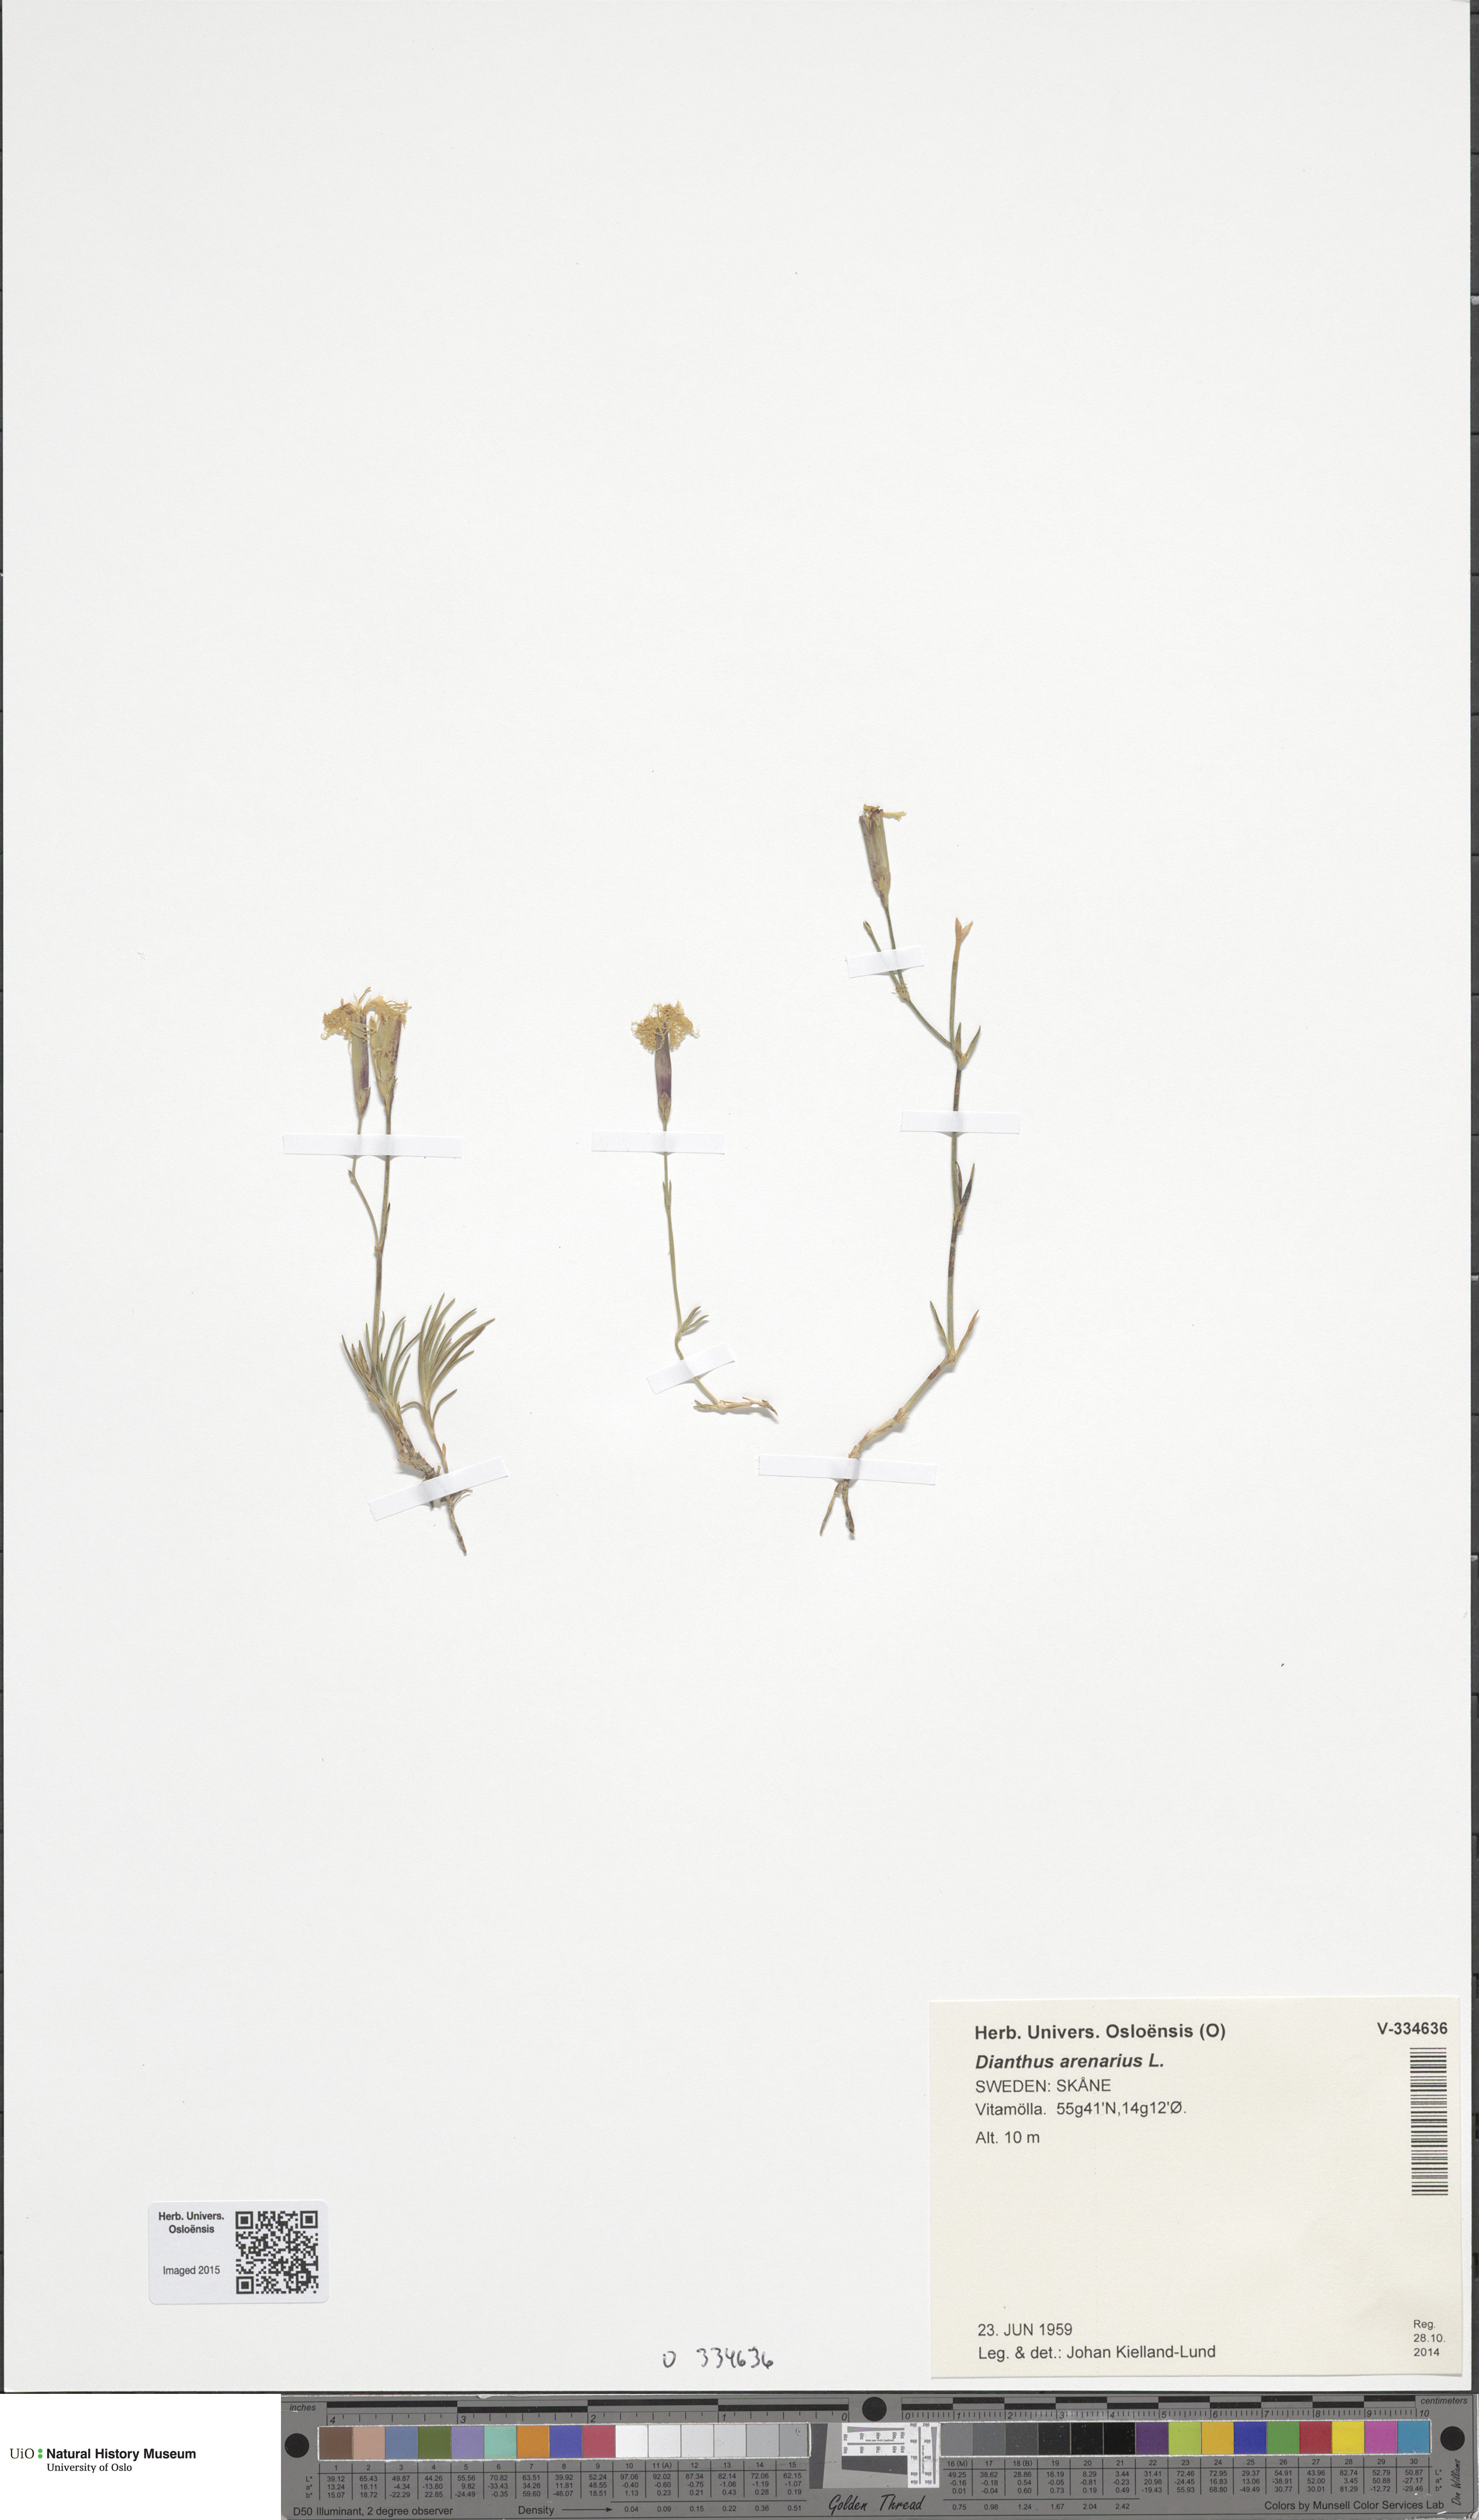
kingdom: Plantae
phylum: Tracheophyta
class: Magnoliopsida
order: Caryophyllales
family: Caryophyllaceae
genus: Dianthus
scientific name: Dianthus arenarius
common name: Stone pink
